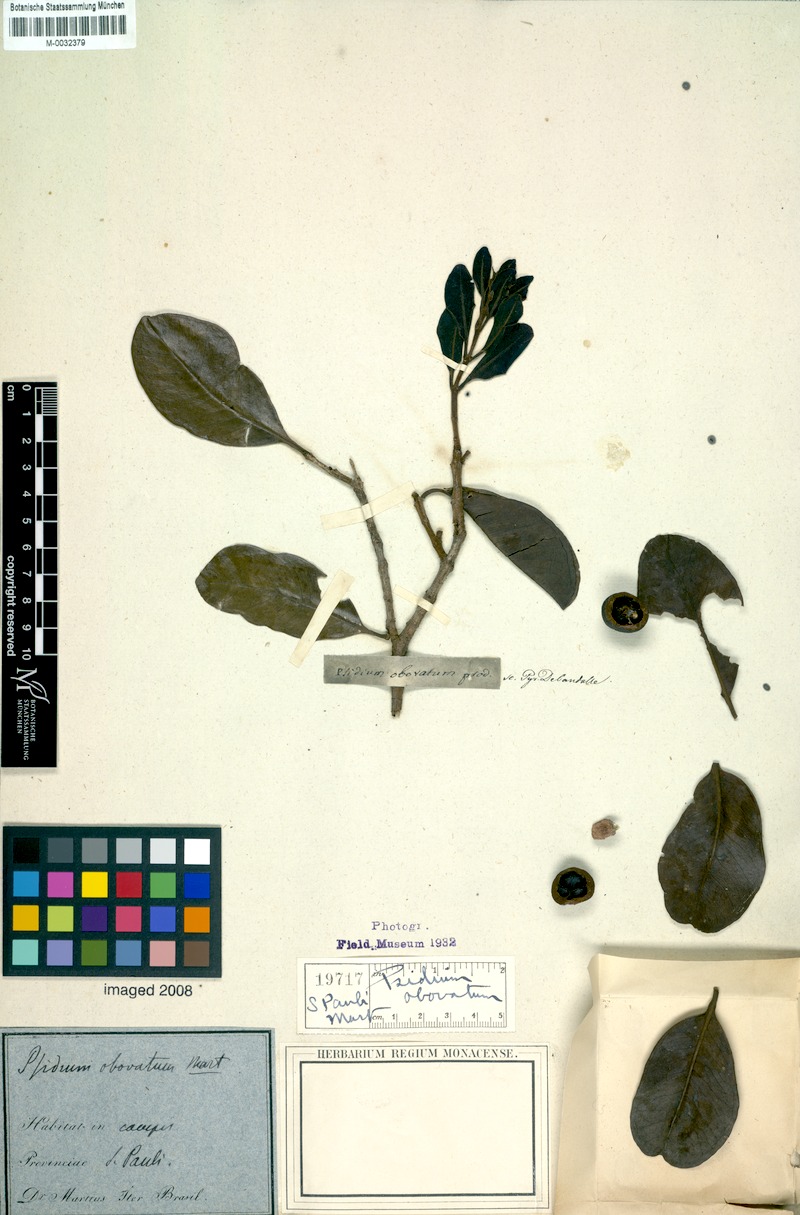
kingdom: Plantae
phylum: Tracheophyta
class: Magnoliopsida
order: Myrtales
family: Myrtaceae
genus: Psidium
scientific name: Psidium cattleianum
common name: Strawberry guava
